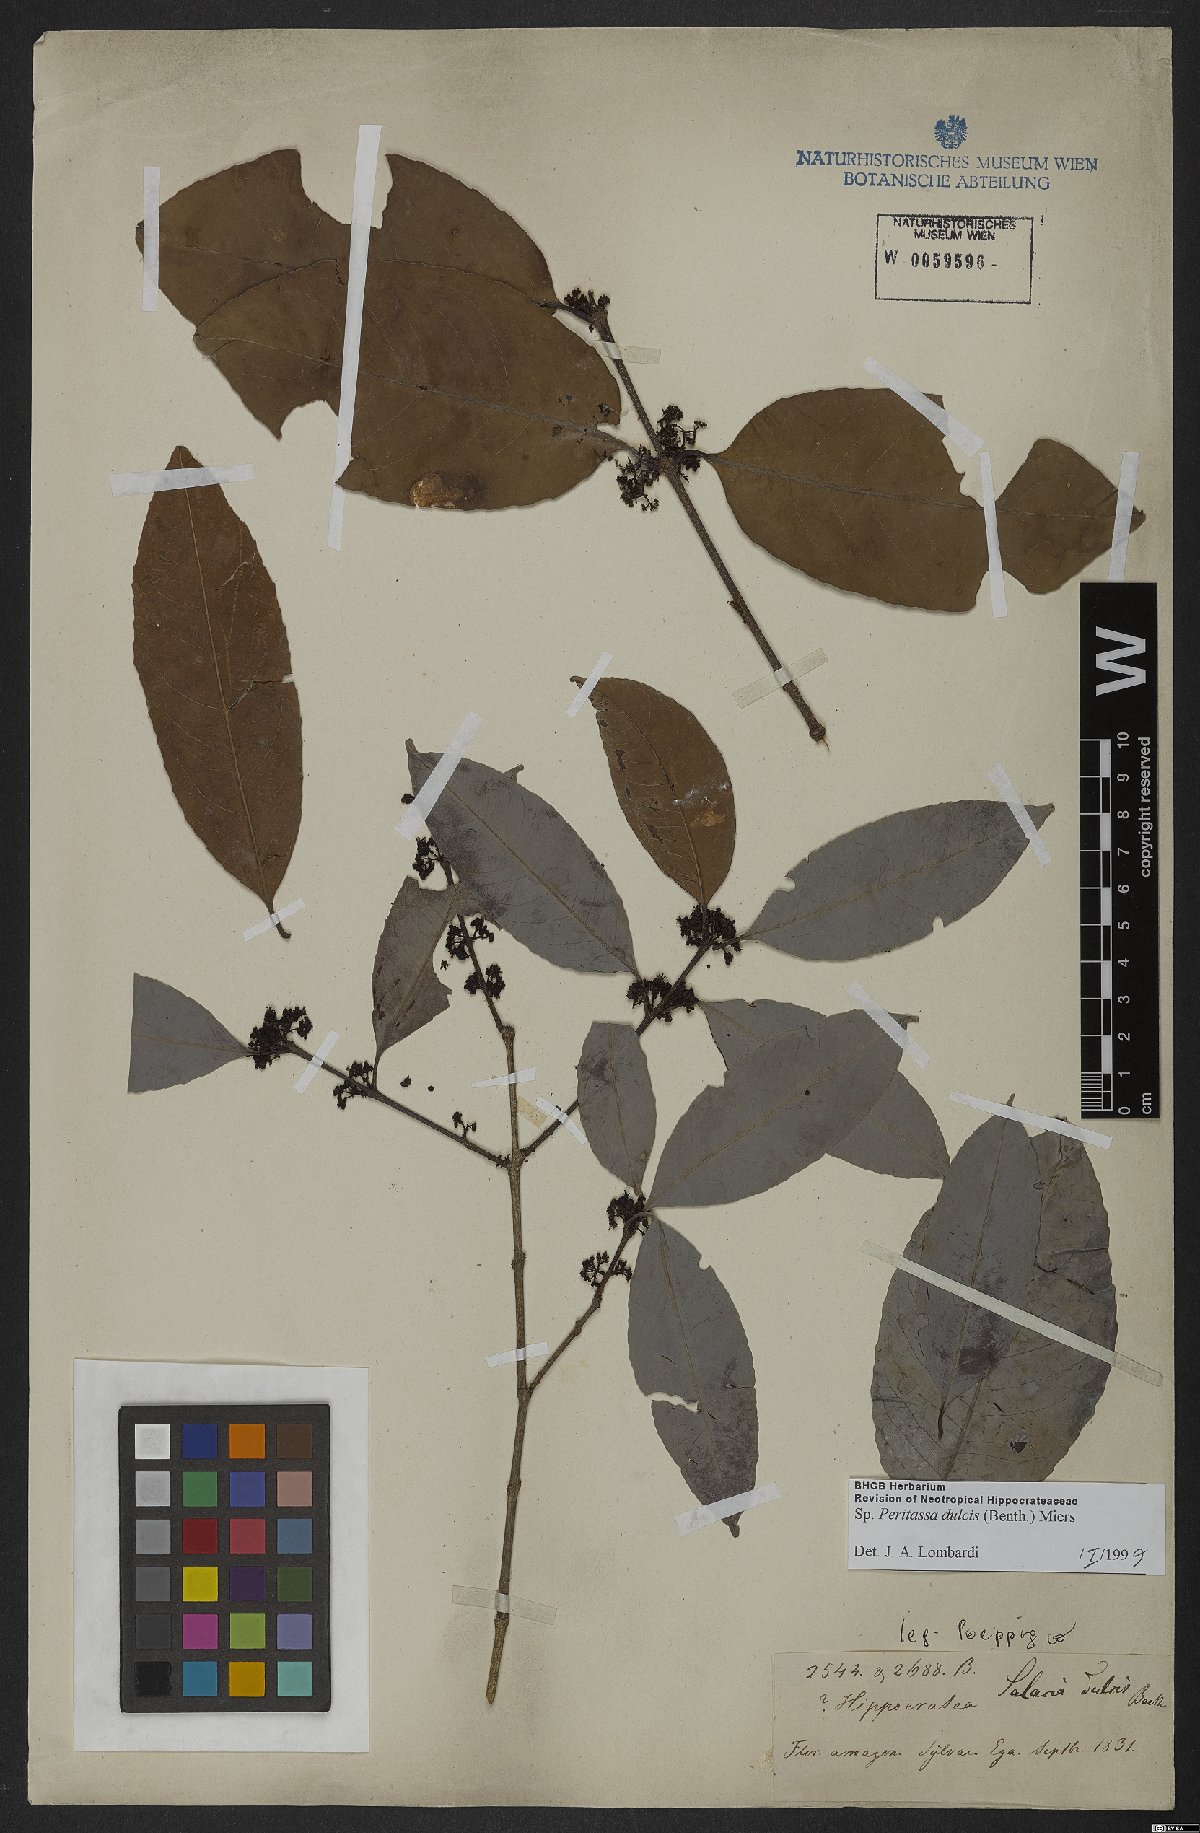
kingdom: Plantae
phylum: Tracheophyta
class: Magnoliopsida
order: Celastrales
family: Celastraceae
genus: Peritassa
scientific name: Peritassa dulcis
